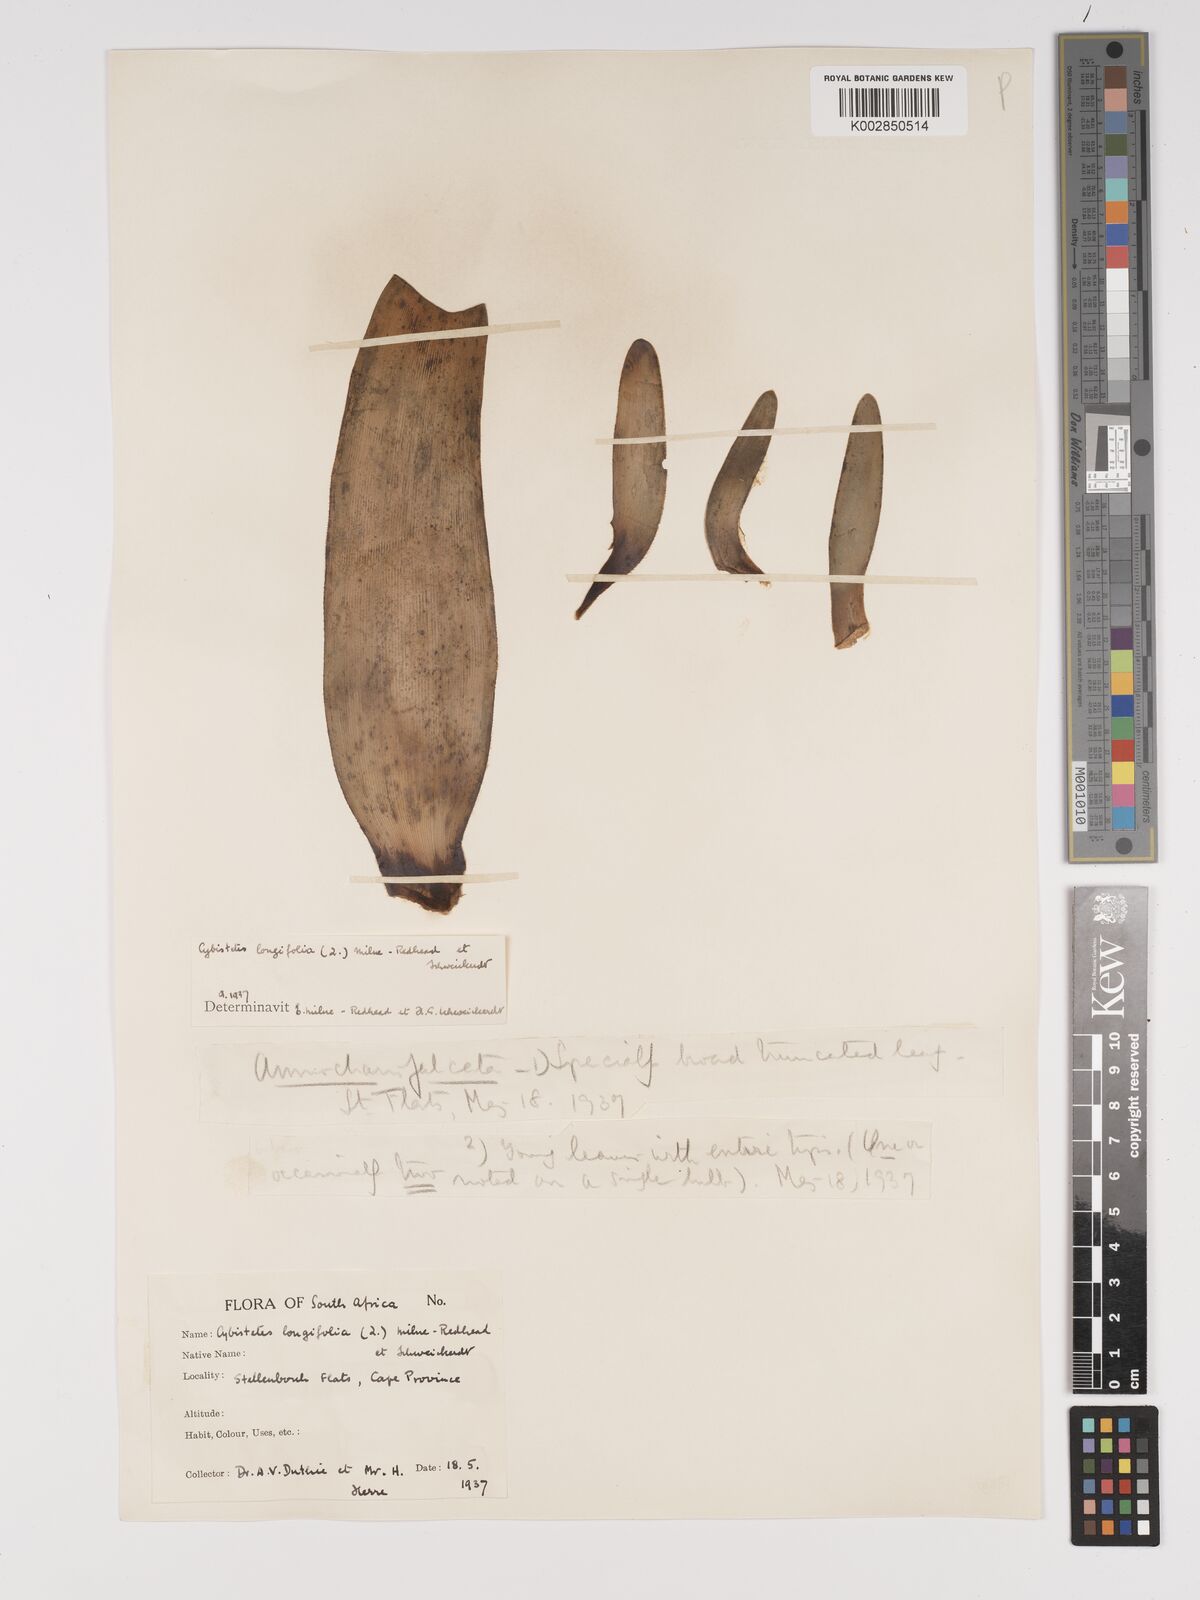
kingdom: Plantae
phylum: Tracheophyta
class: Liliopsida
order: Asparagales
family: Amaryllidaceae
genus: Ammocharis
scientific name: Ammocharis longifolia
